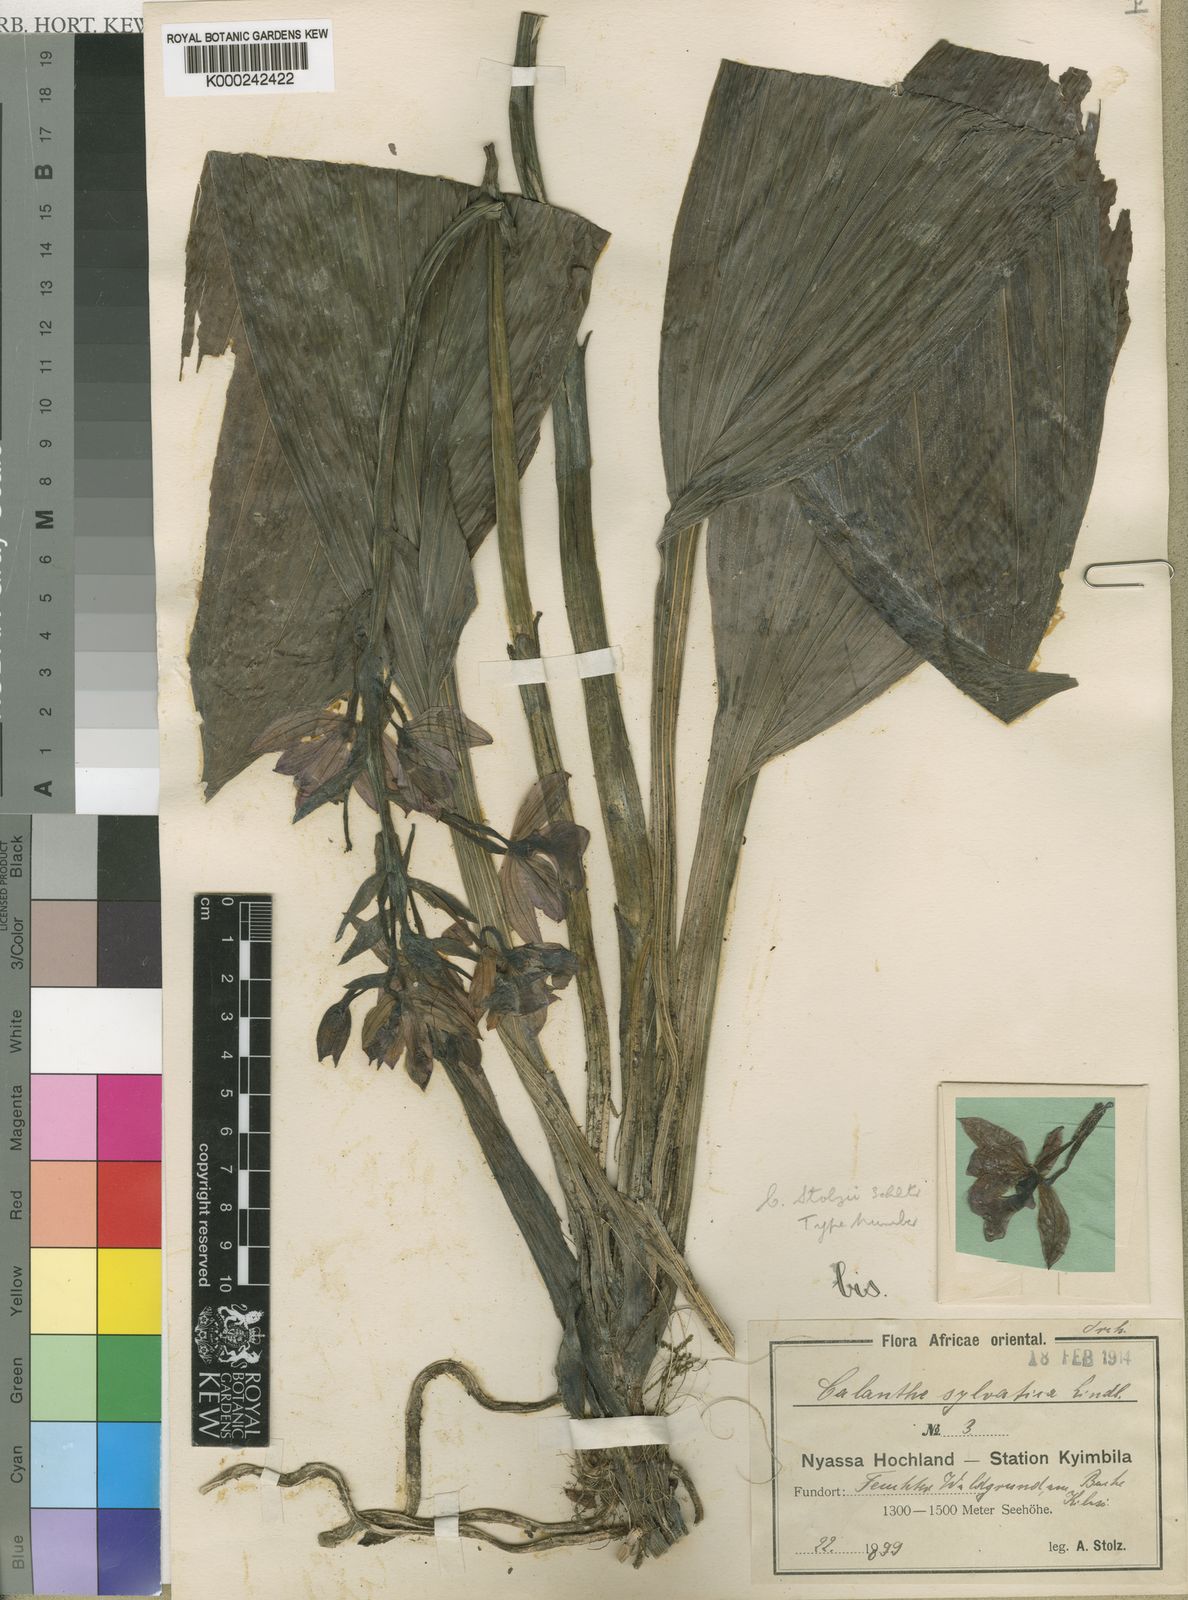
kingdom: Plantae
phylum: Tracheophyta
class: Liliopsida
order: Asparagales
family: Orchidaceae
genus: Calanthe
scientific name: Calanthe sylvatica
